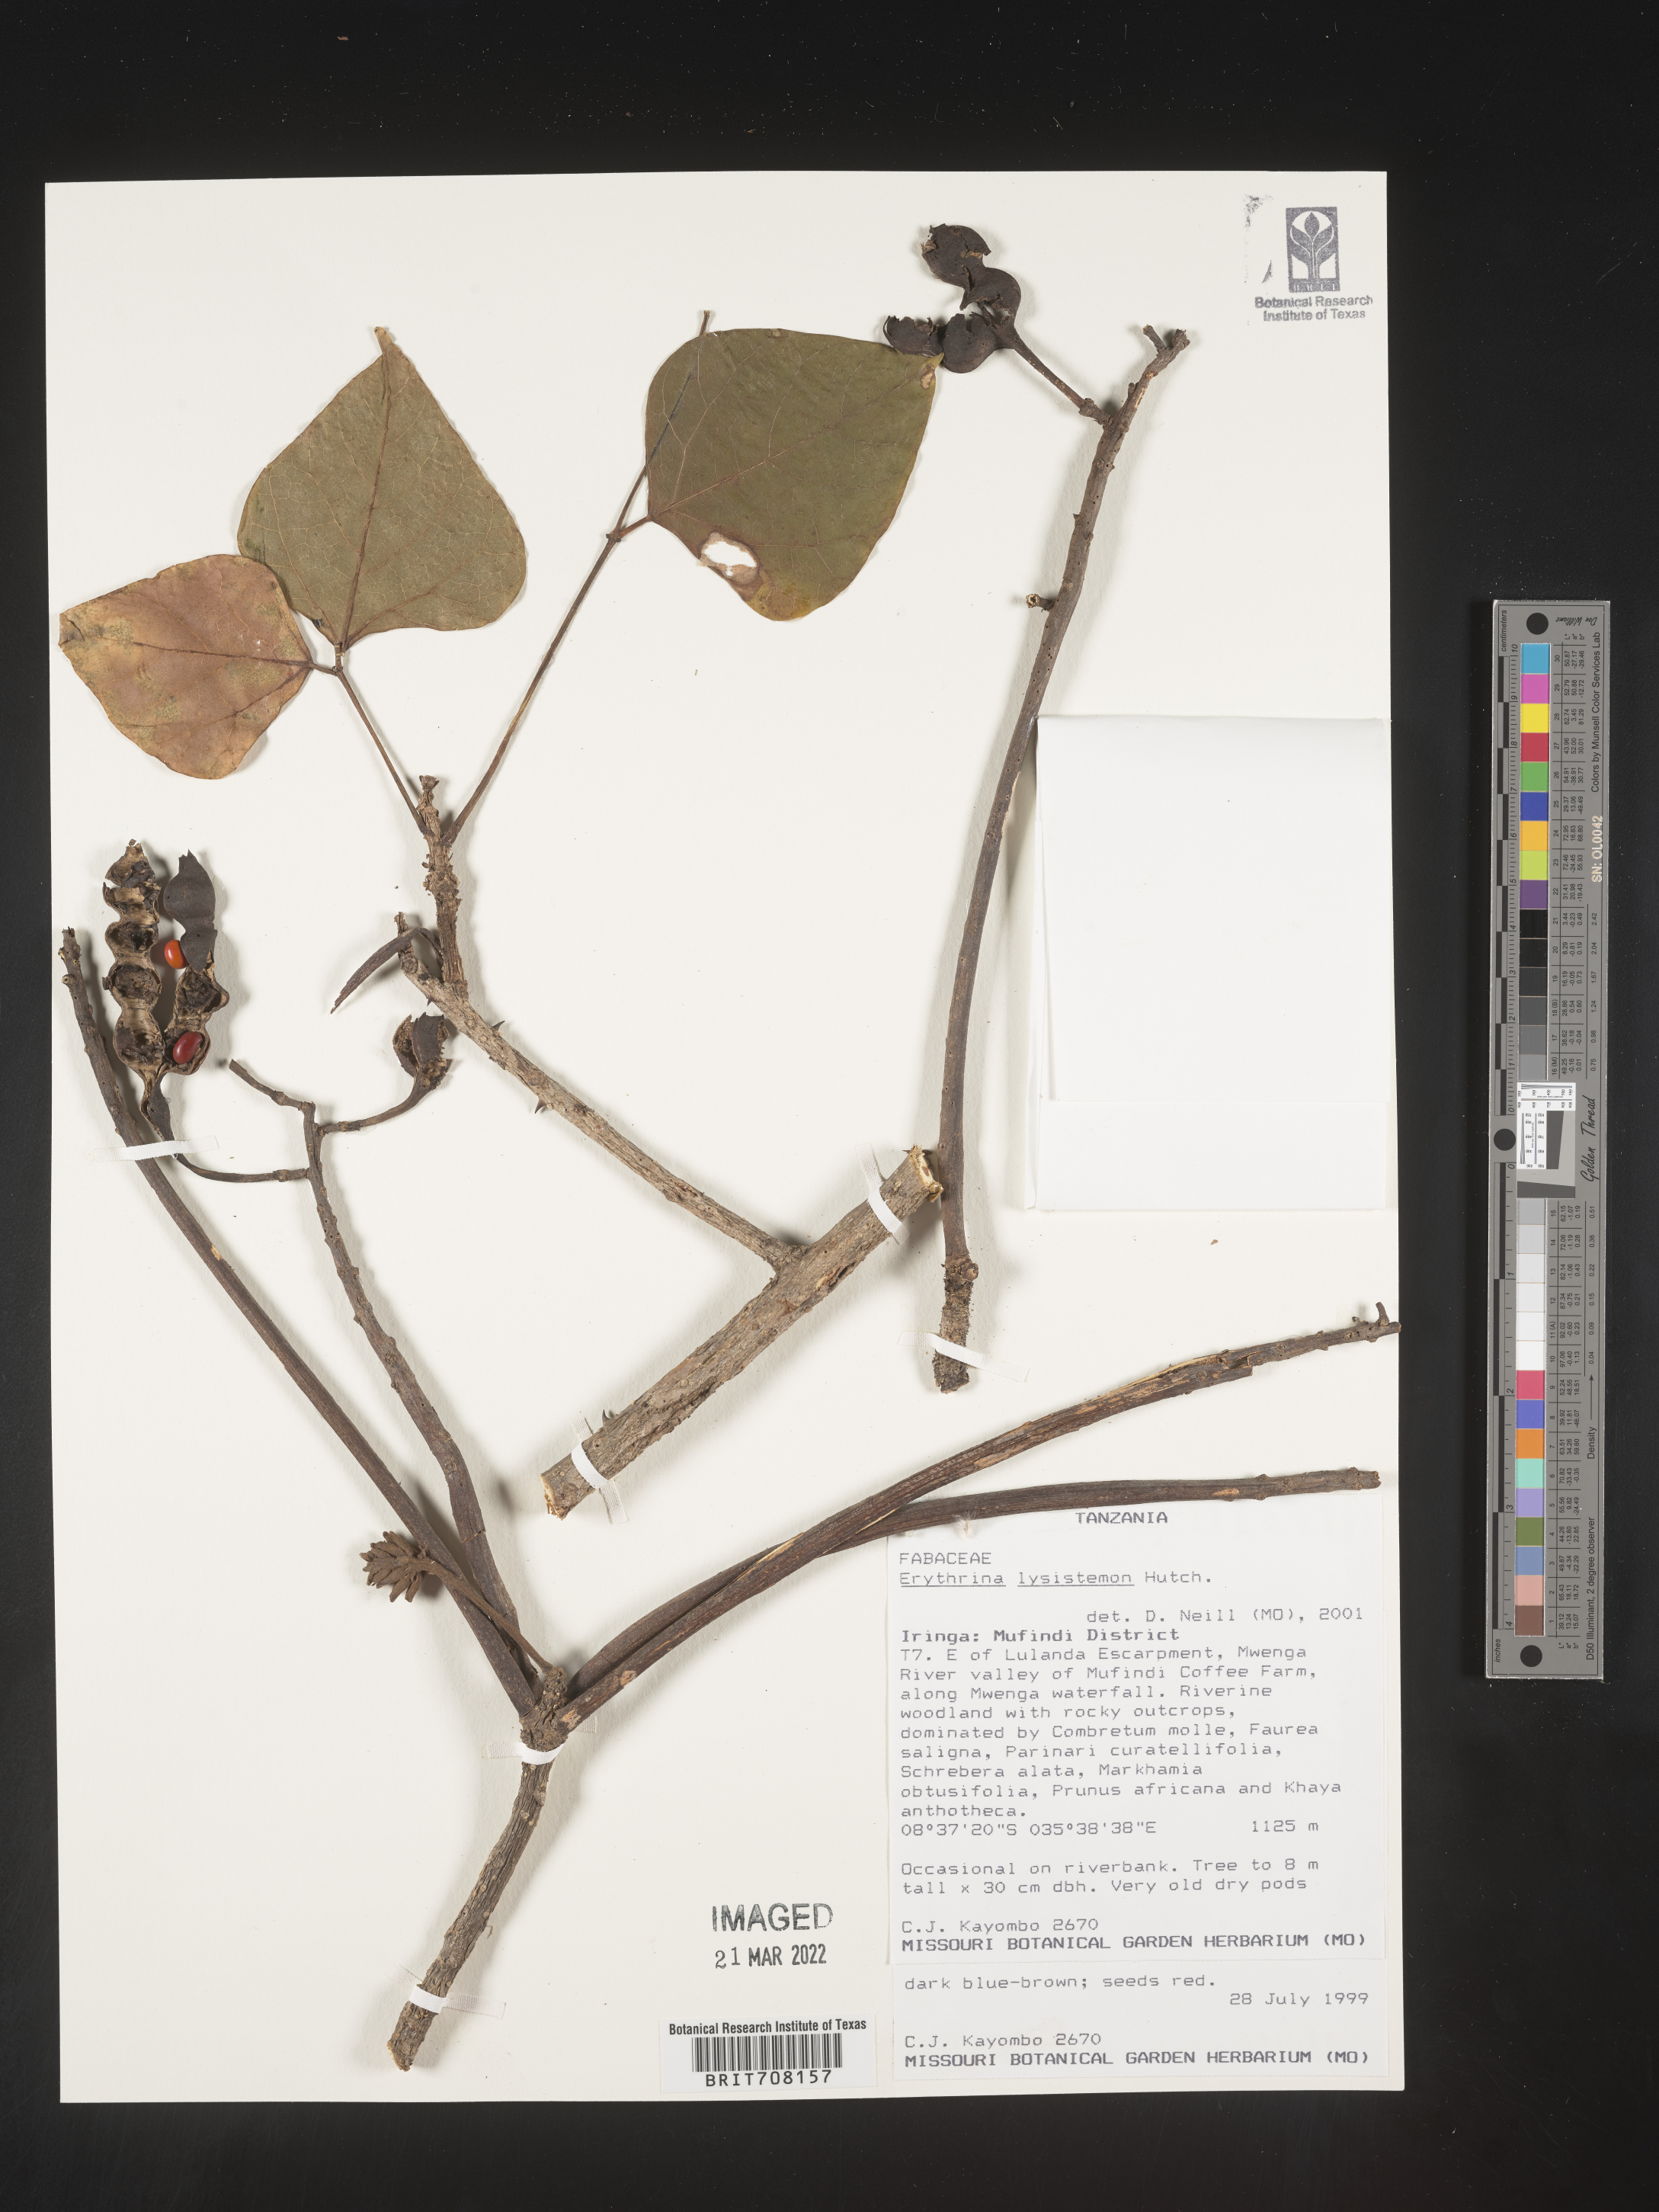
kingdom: Plantae
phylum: Tracheophyta
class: Magnoliopsida
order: Fabales
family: Fabaceae
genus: Erythrina
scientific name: Erythrina
